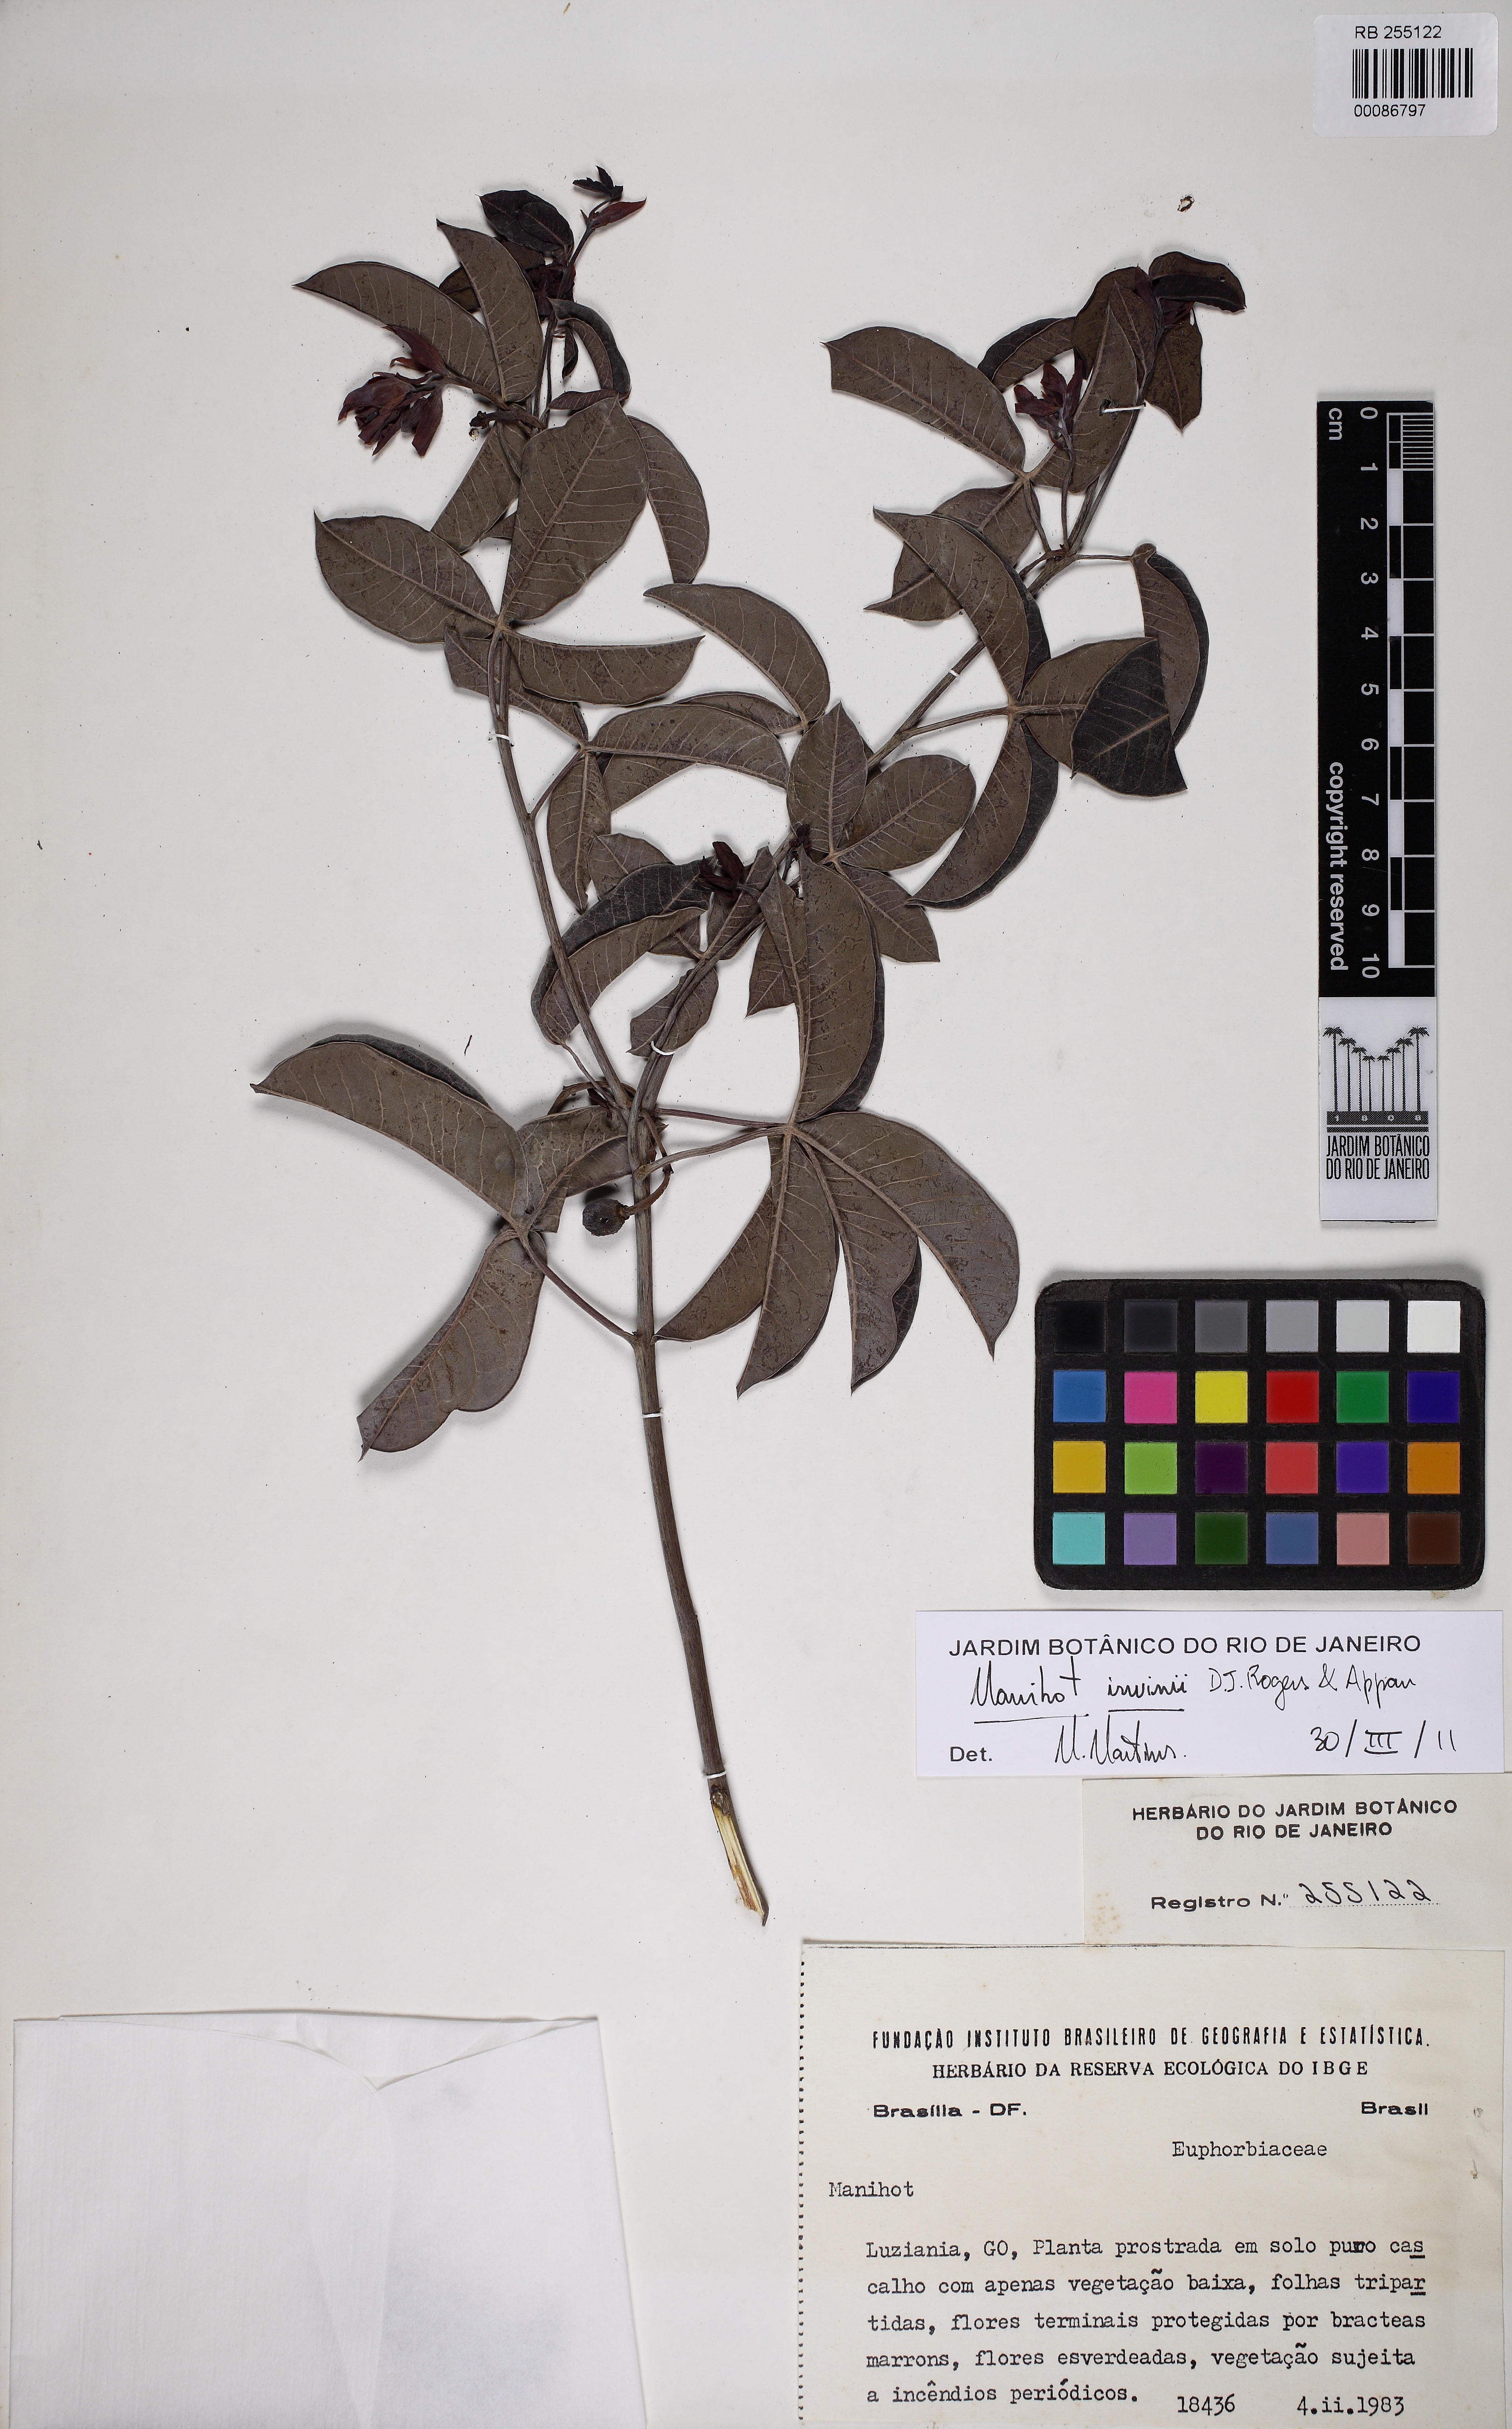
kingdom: Plantae
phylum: Tracheophyta
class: Magnoliopsida
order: Malpighiales
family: Euphorbiaceae
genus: Manihot
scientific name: Manihot divergens
